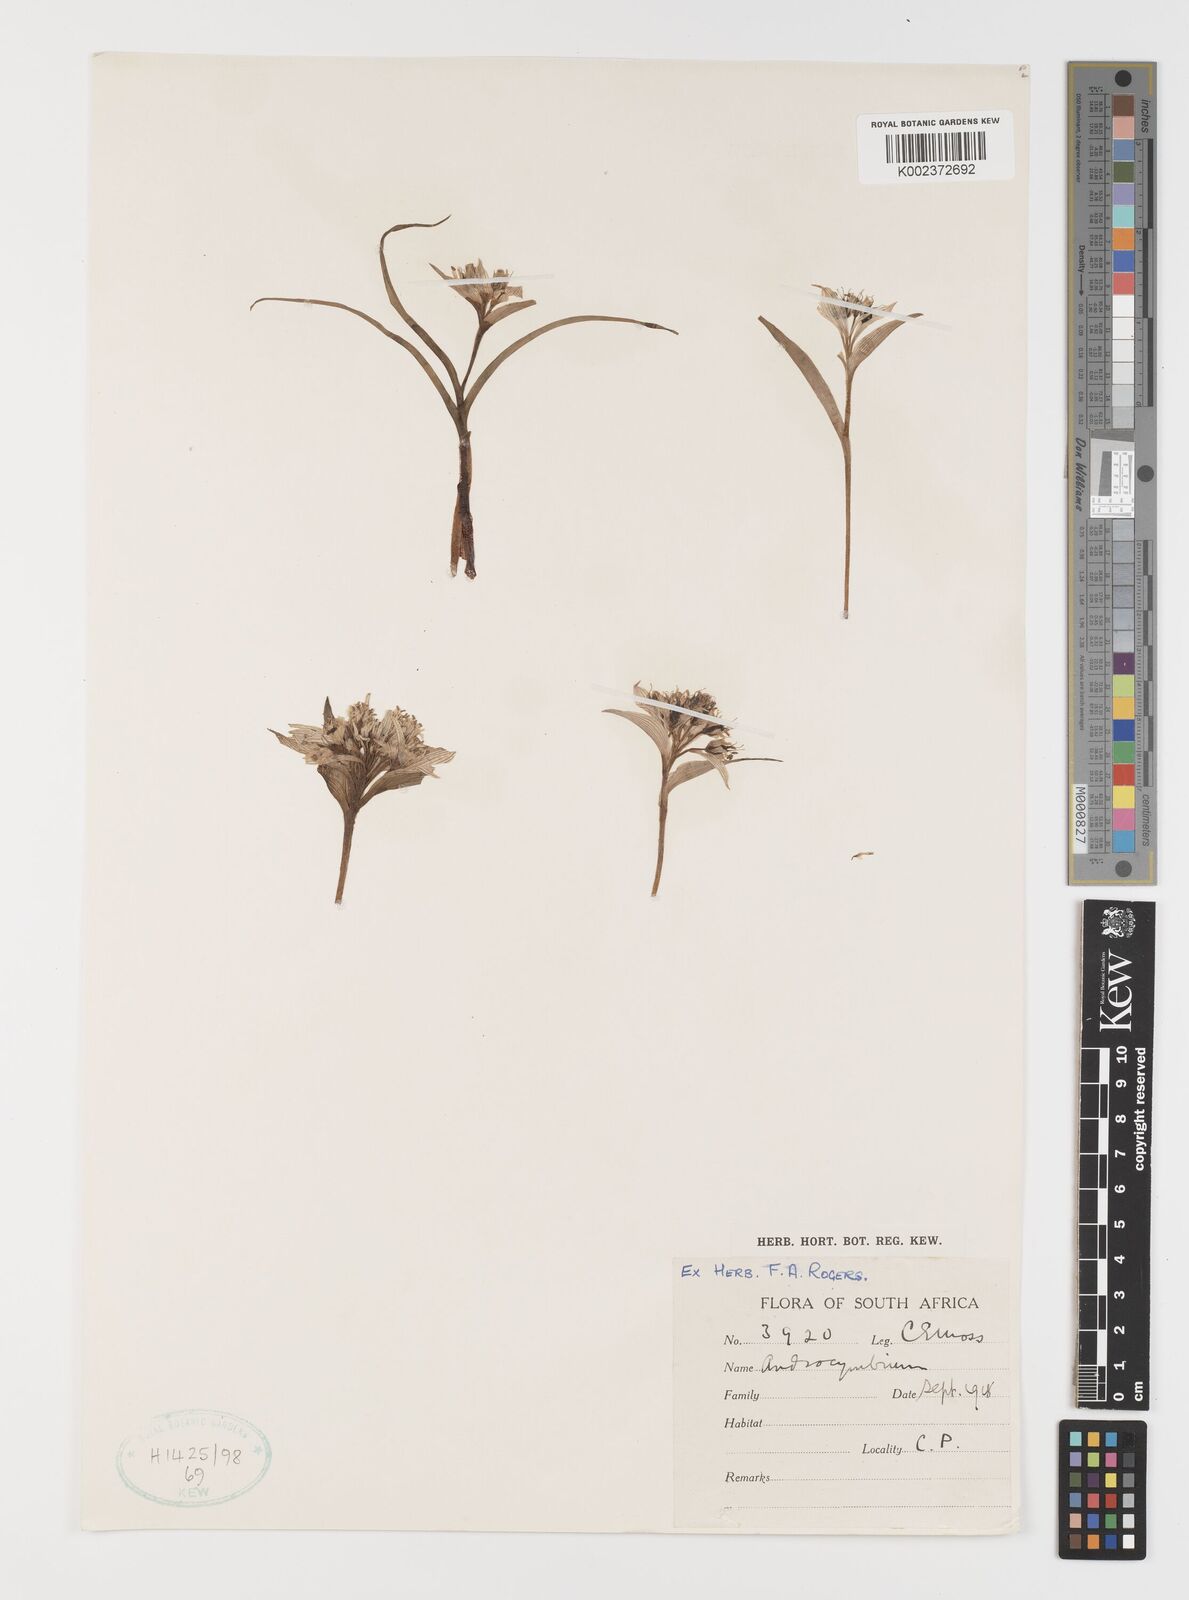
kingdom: Plantae
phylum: Tracheophyta
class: Liliopsida
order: Liliales
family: Colchicaceae
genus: Colchicum
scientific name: Colchicum
